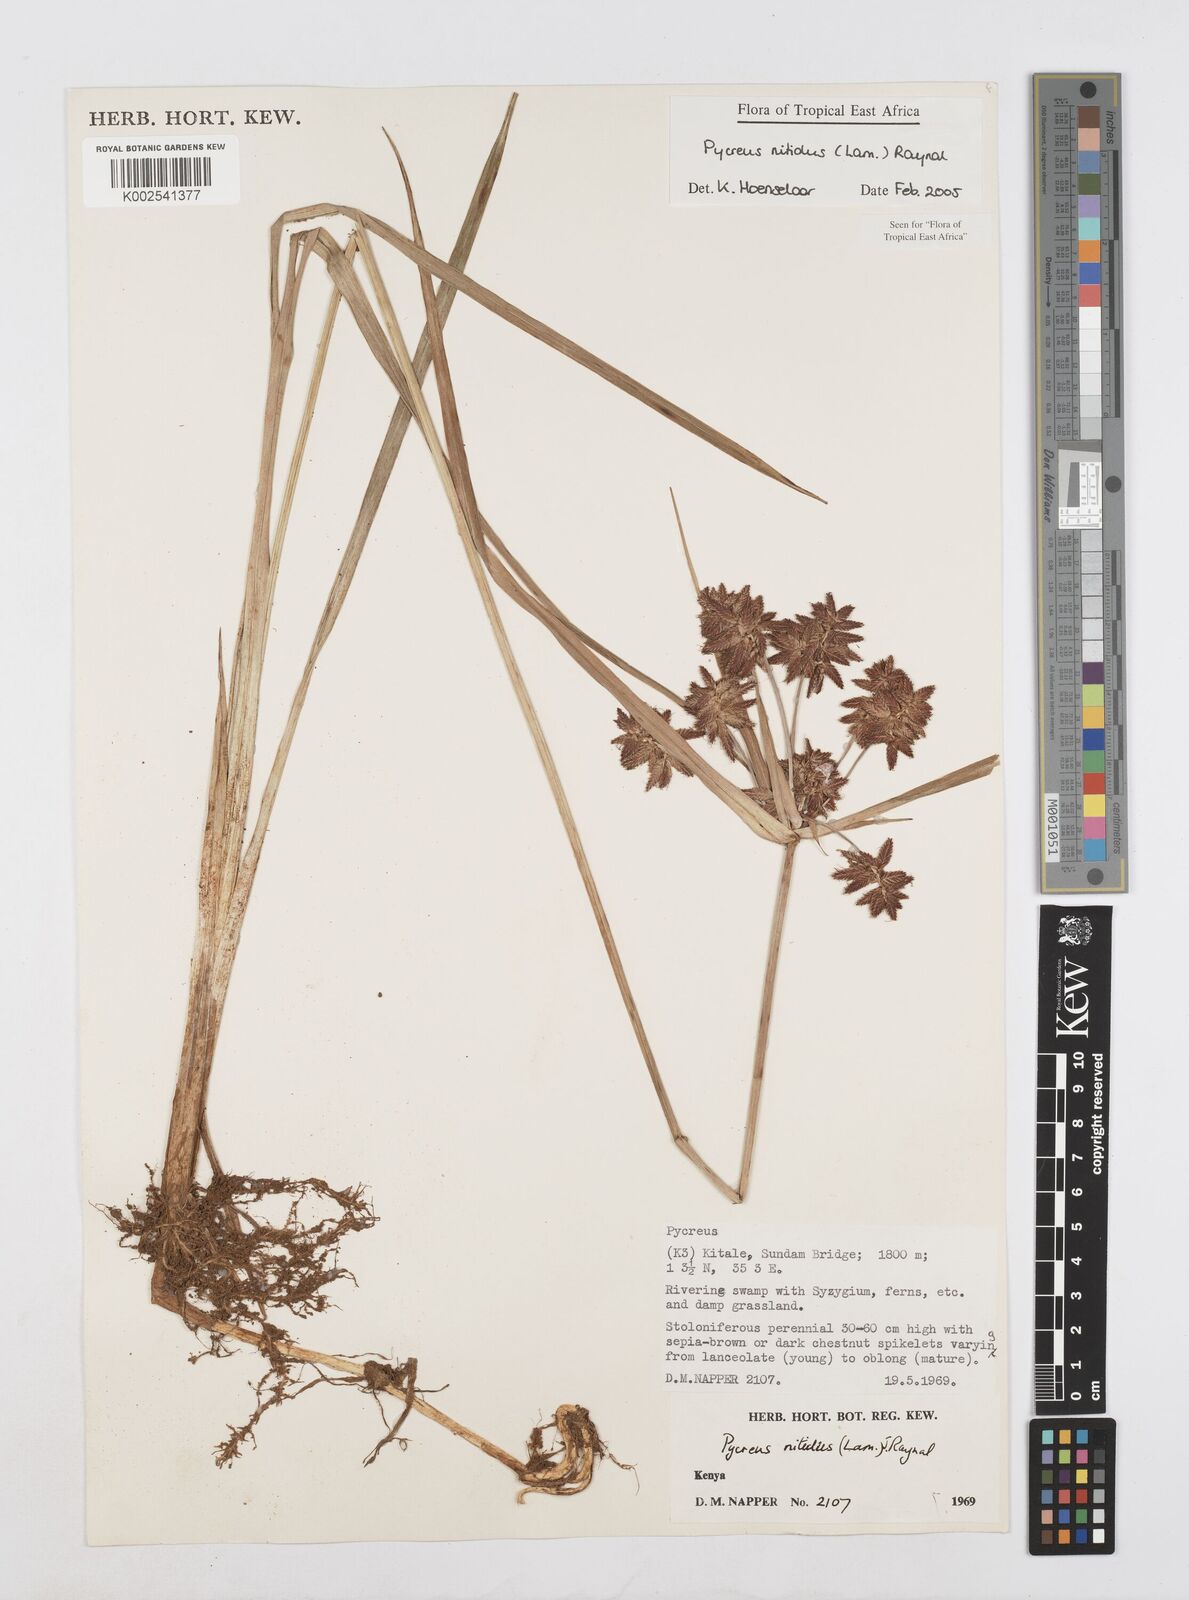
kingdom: Plantae
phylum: Tracheophyta
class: Liliopsida
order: Poales
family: Cyperaceae
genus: Cyperus
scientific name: Cyperus nitidus
